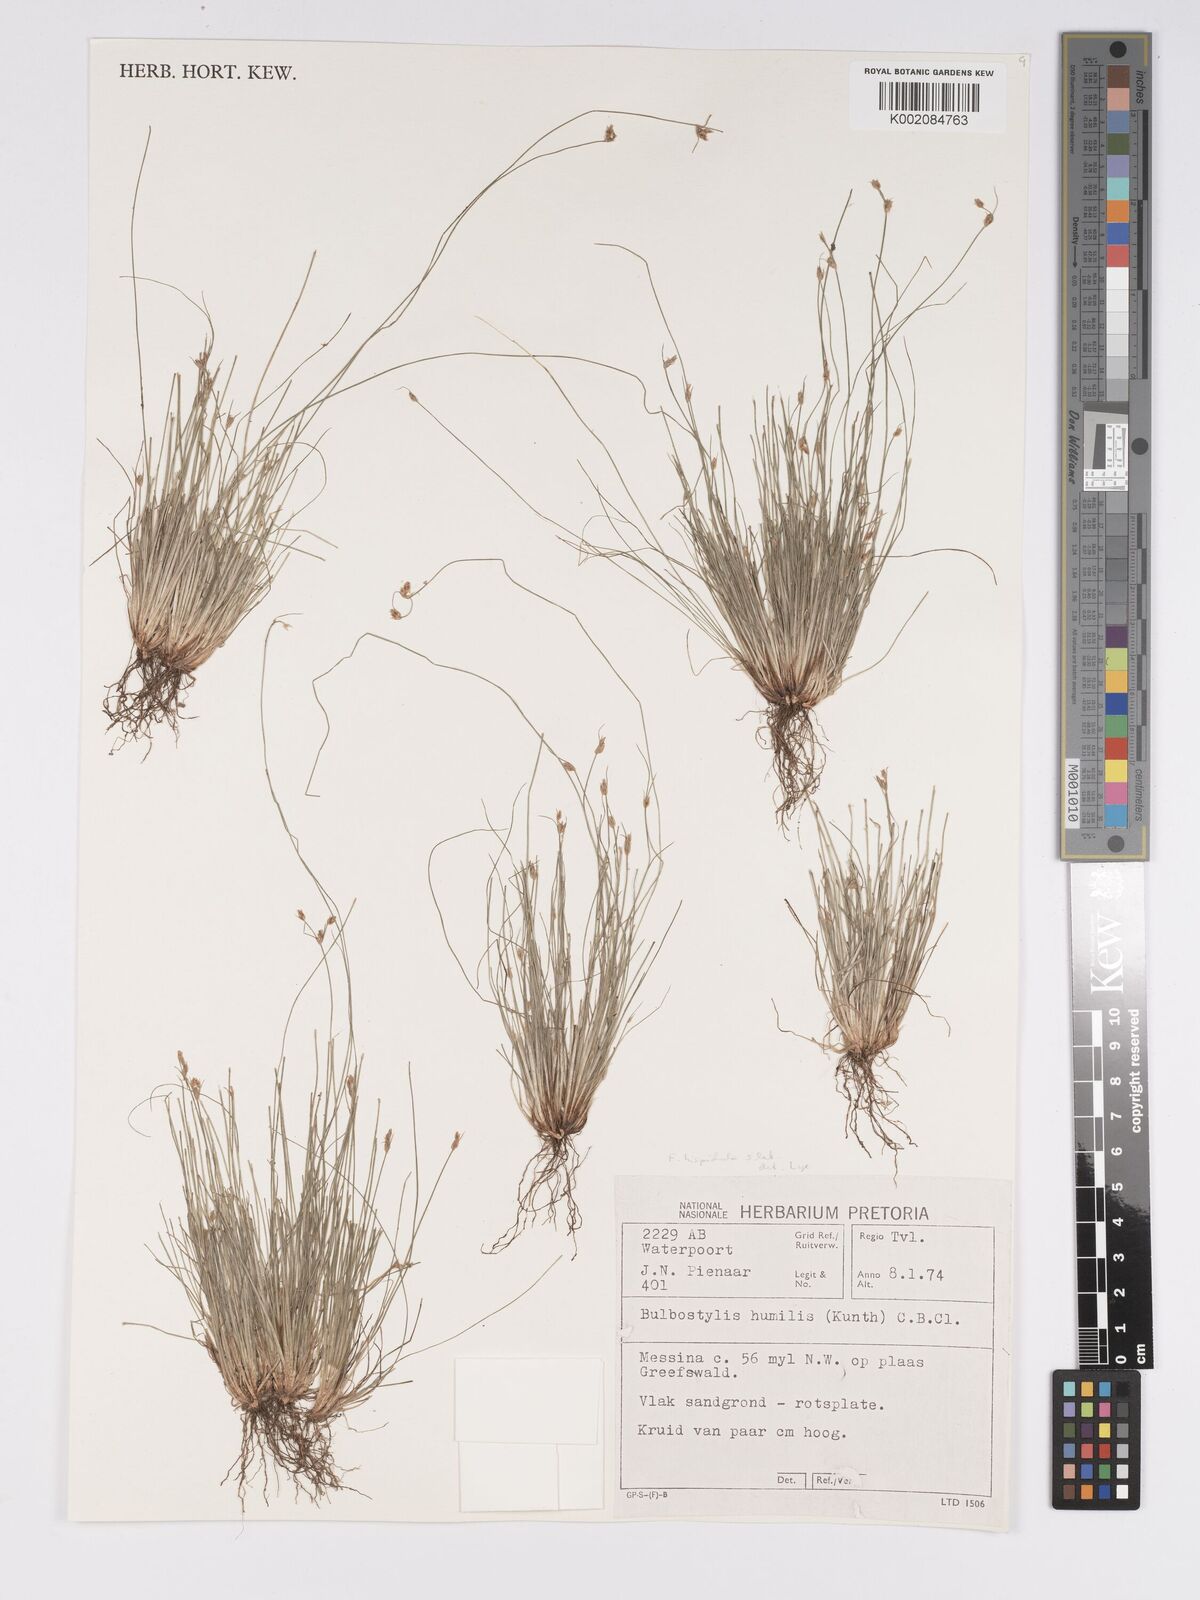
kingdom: Plantae
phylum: Tracheophyta
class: Liliopsida
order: Poales
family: Cyperaceae
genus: Bulbostylis
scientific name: Bulbostylis hispidula
